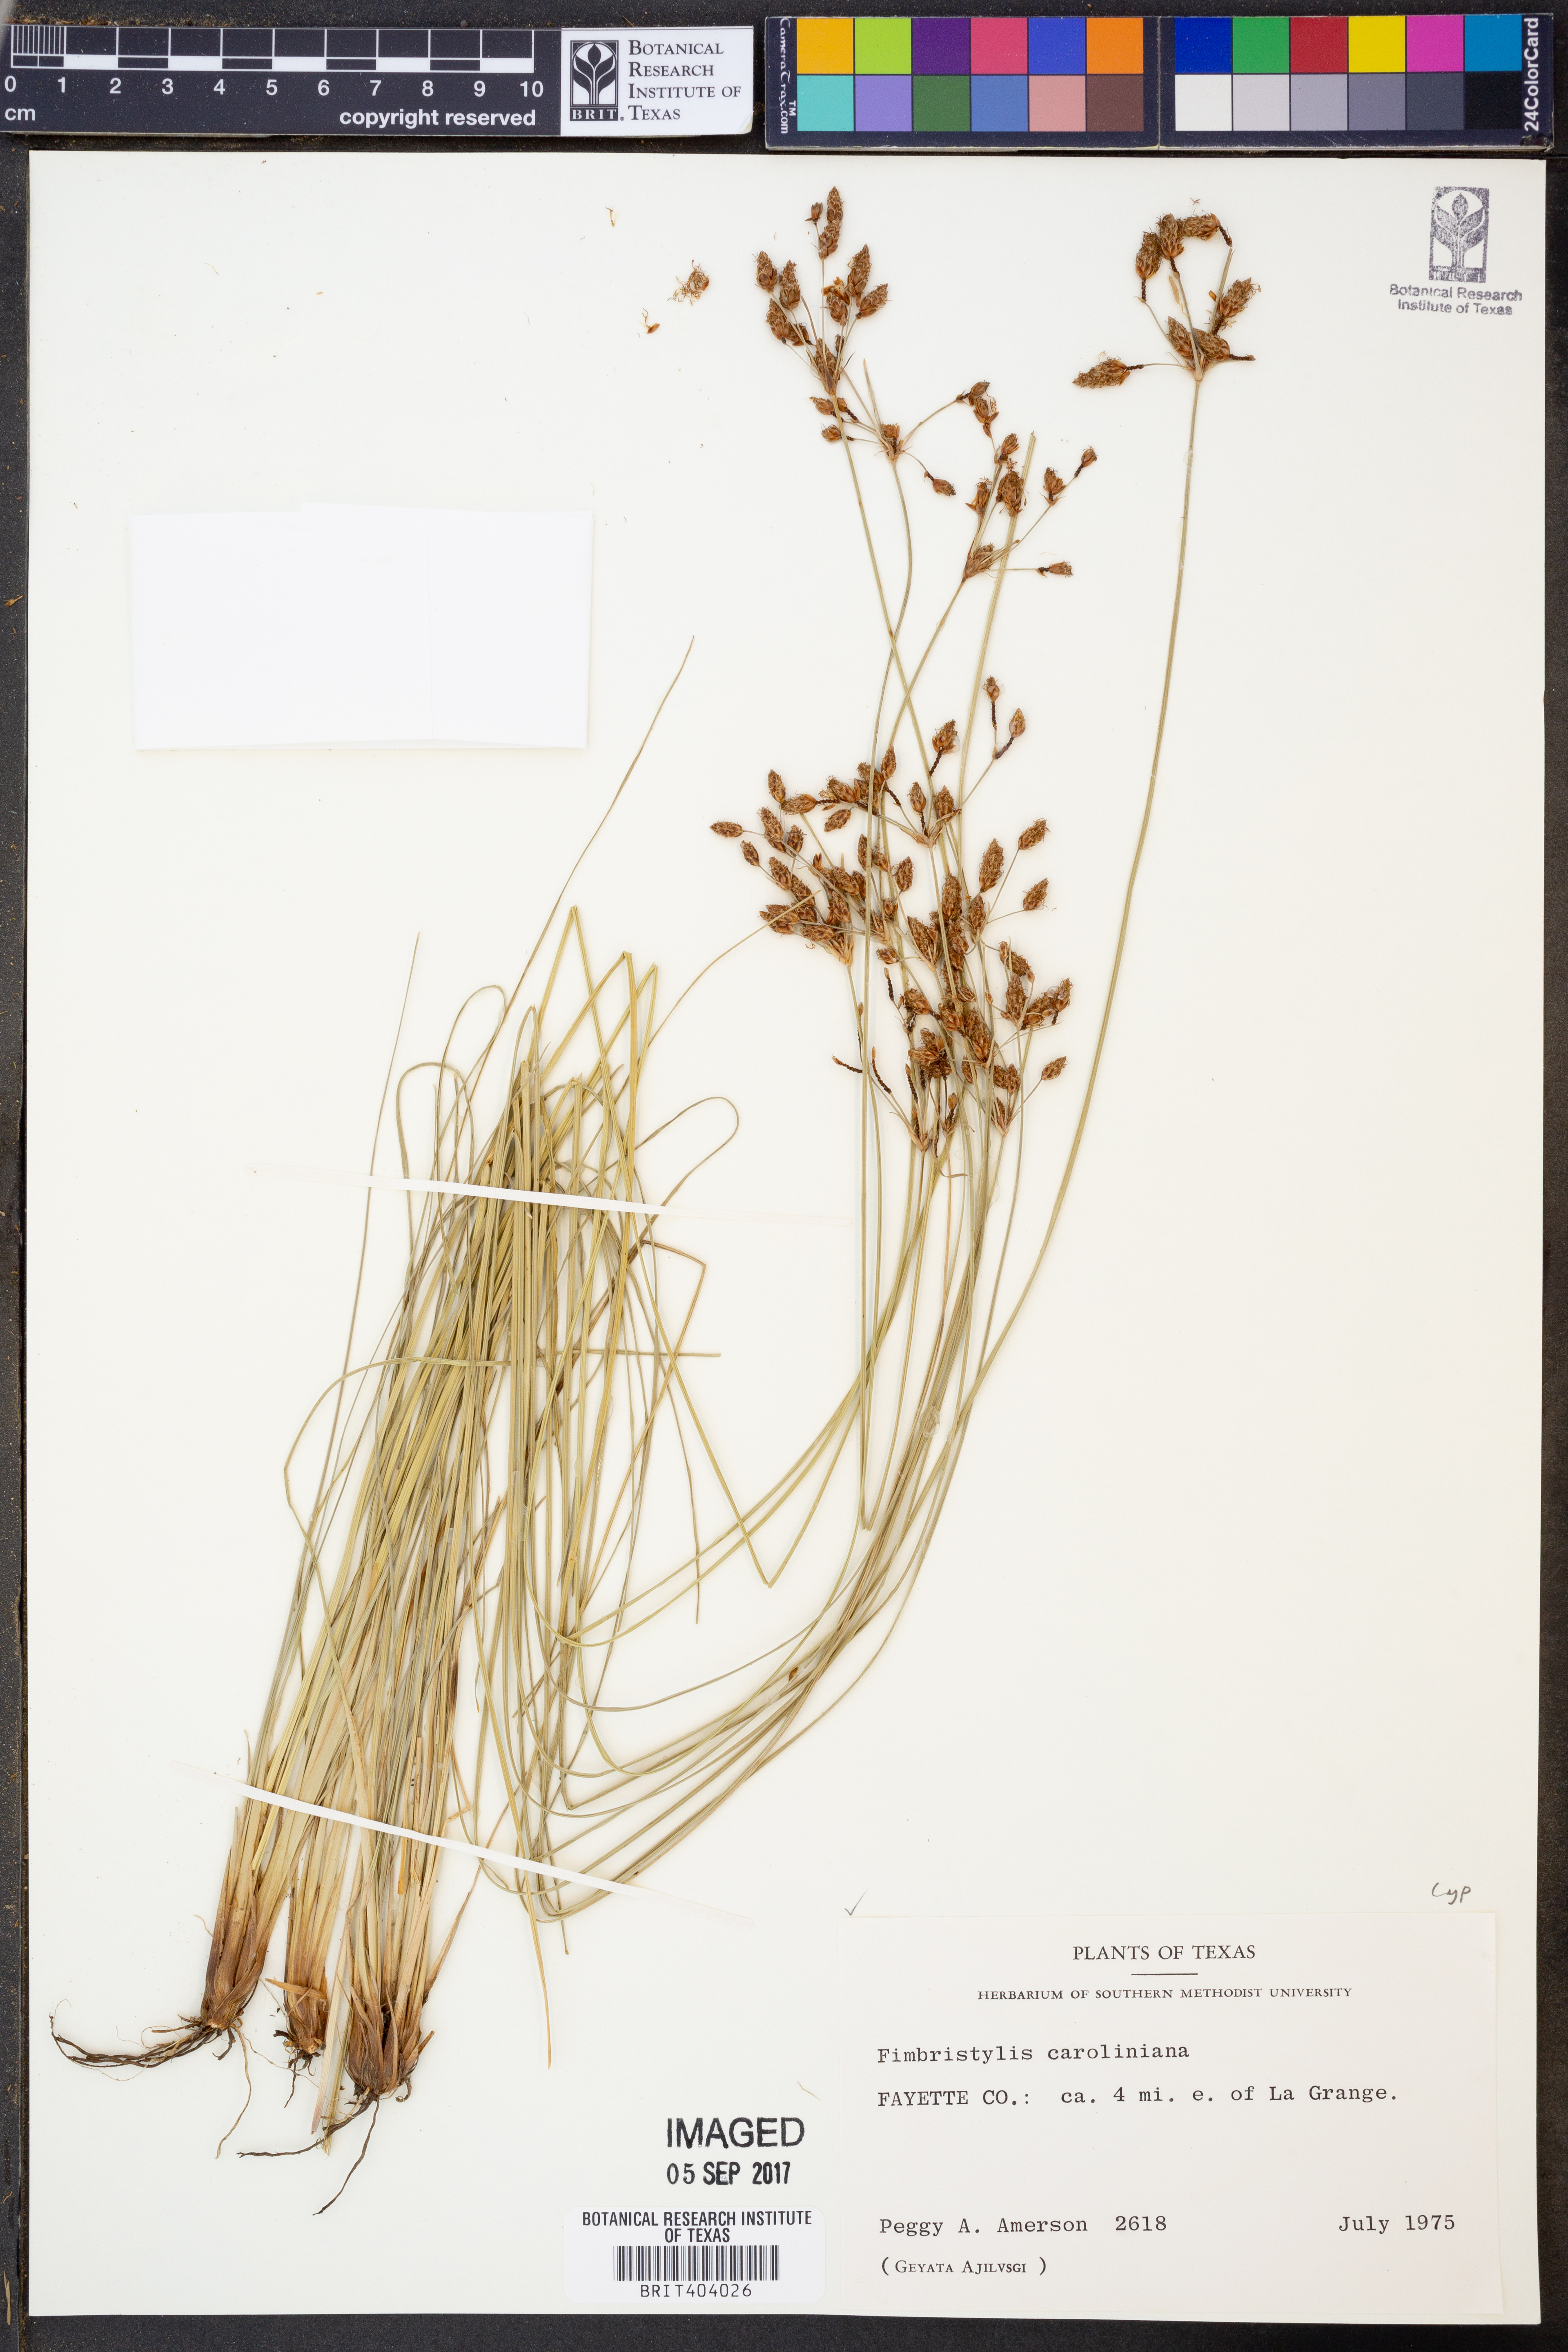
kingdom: Plantae
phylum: Tracheophyta
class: Liliopsida
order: Poales
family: Cyperaceae
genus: Fimbristylis
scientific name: Fimbristylis caroliniana
